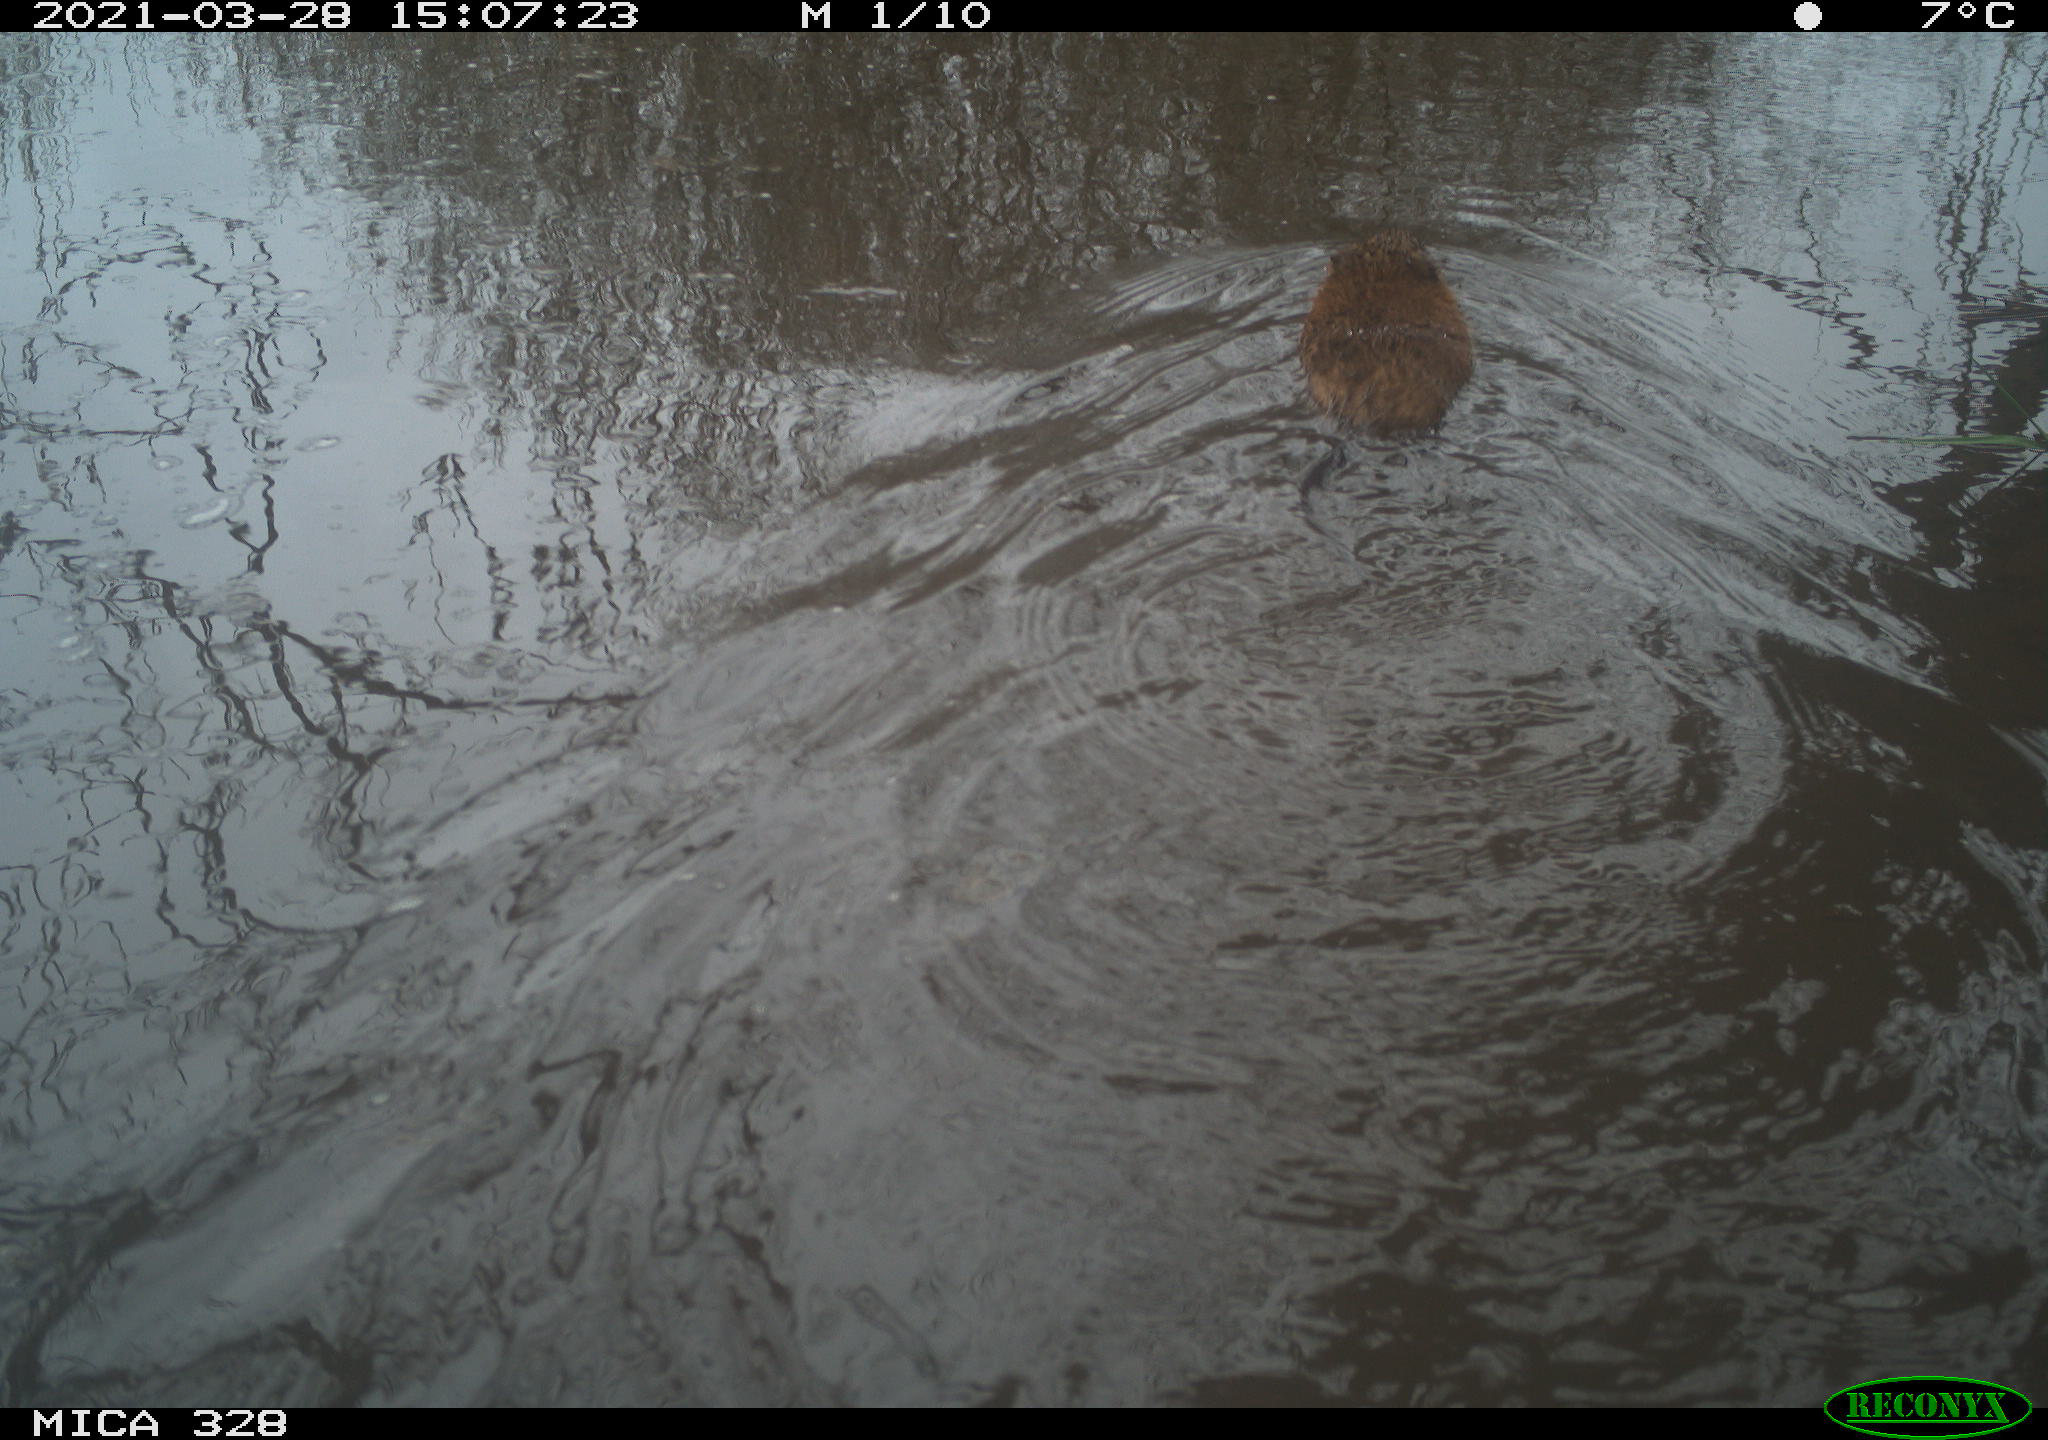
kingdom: Animalia
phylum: Chordata
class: Mammalia
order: Rodentia
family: Cricetidae
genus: Ondatra
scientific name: Ondatra zibethicus
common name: Muskrat
